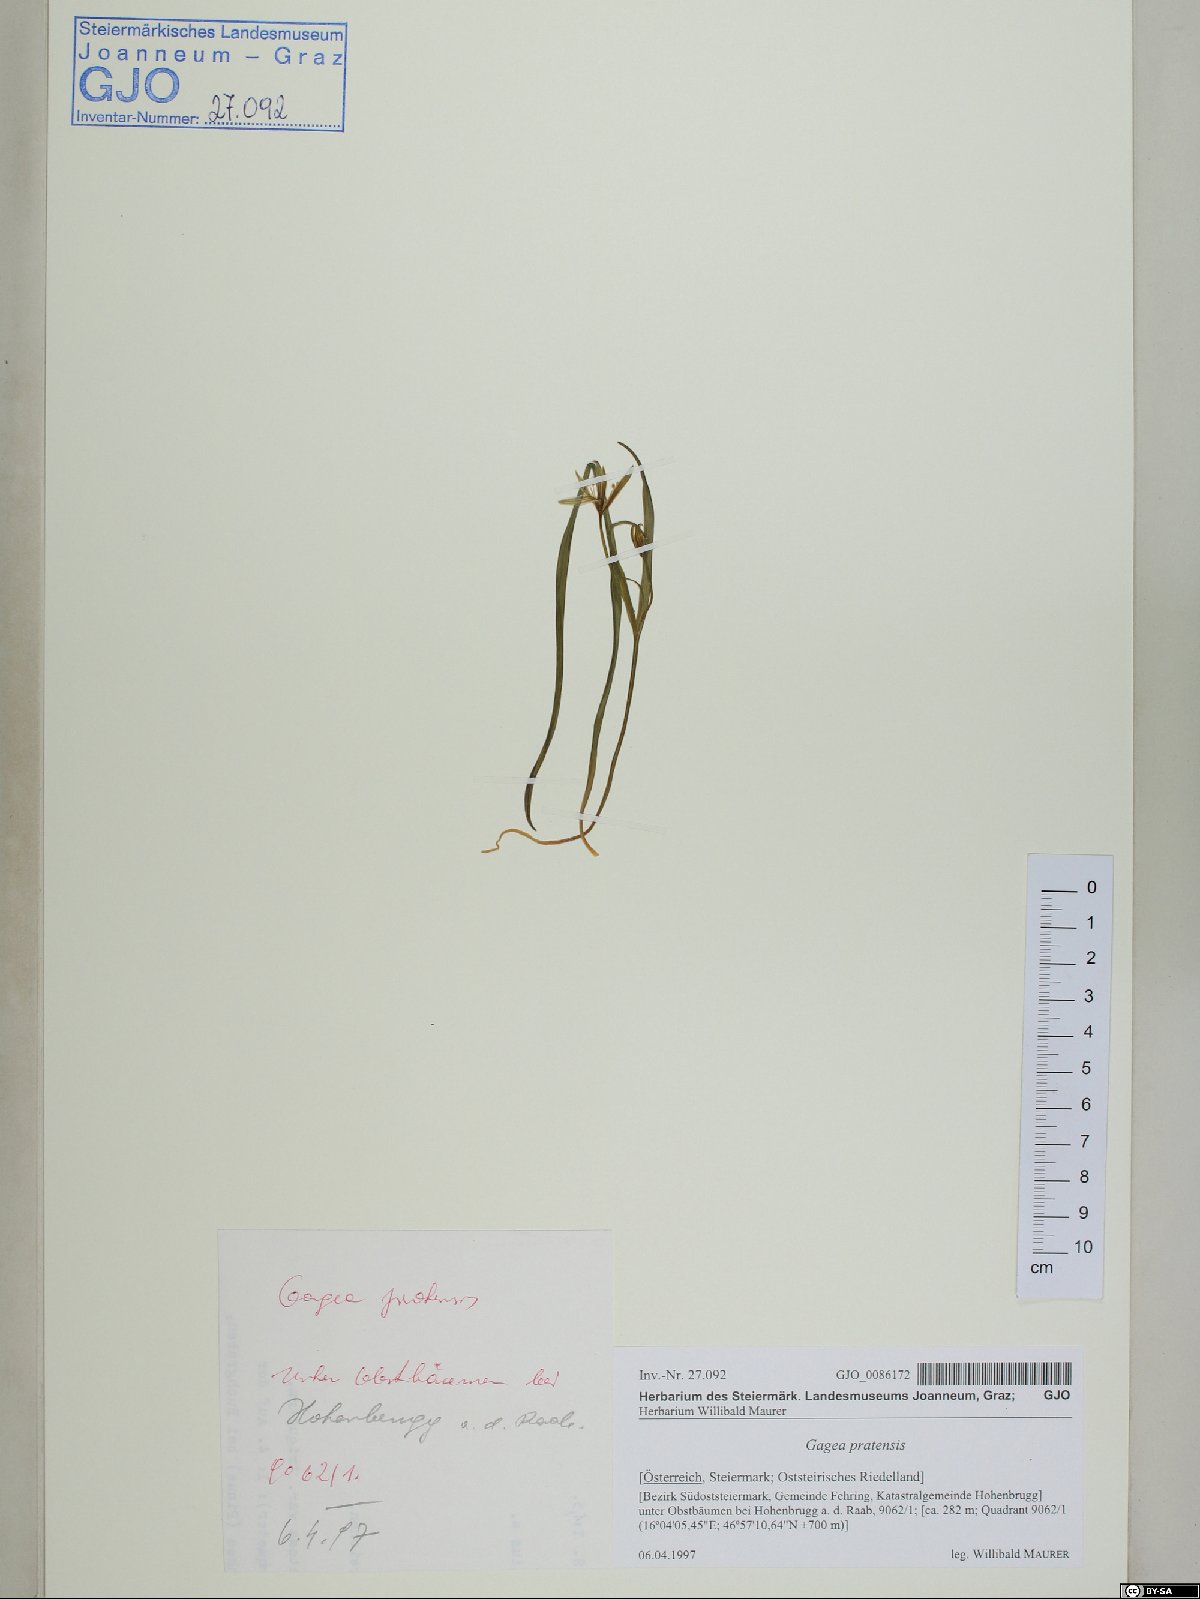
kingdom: Plantae
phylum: Tracheophyta
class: Liliopsida
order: Liliales
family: Liliaceae
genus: Gagea
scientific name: Gagea pratensis
